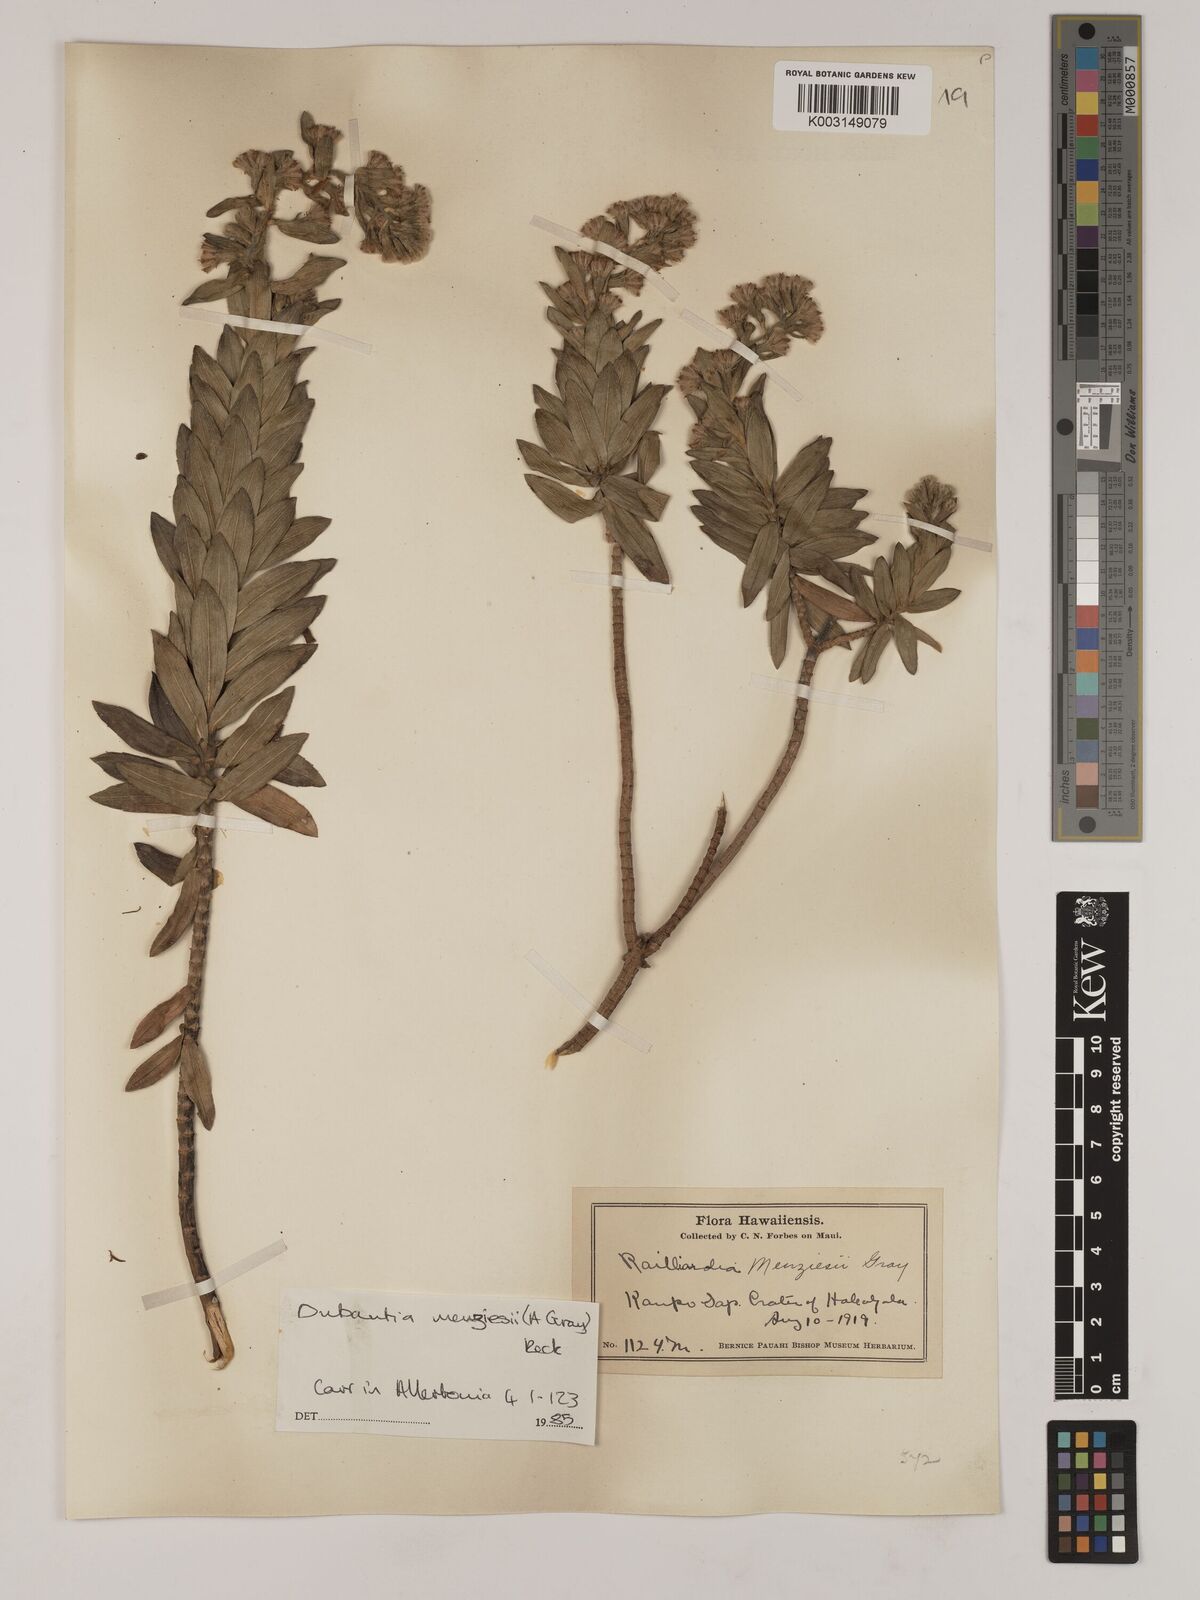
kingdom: Plantae
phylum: Tracheophyta
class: Magnoliopsida
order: Asterales
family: Asteraceae
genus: Dubautia
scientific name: Dubautia menziesii
